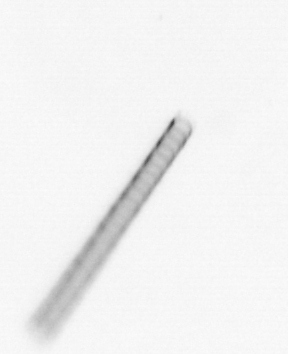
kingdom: Chromista
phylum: Ochrophyta
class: Bacillariophyceae
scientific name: Bacillariophyceae
